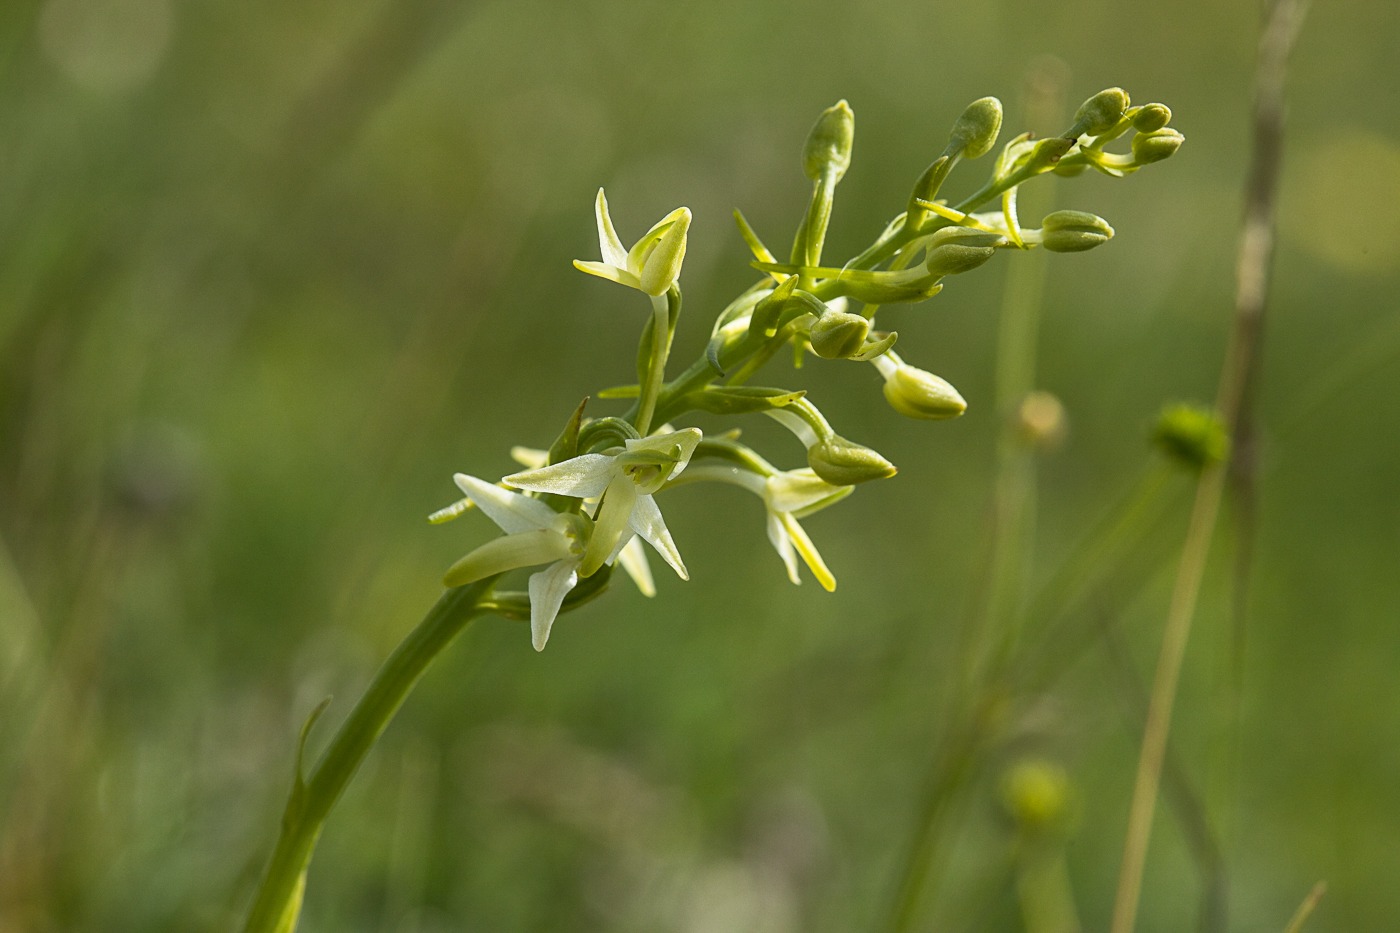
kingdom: Plantae
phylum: Tracheophyta
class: Liliopsida
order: Asparagales
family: Orchidaceae
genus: Platanthera
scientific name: Platanthera bifolia
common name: Bakke-gøgelilje
